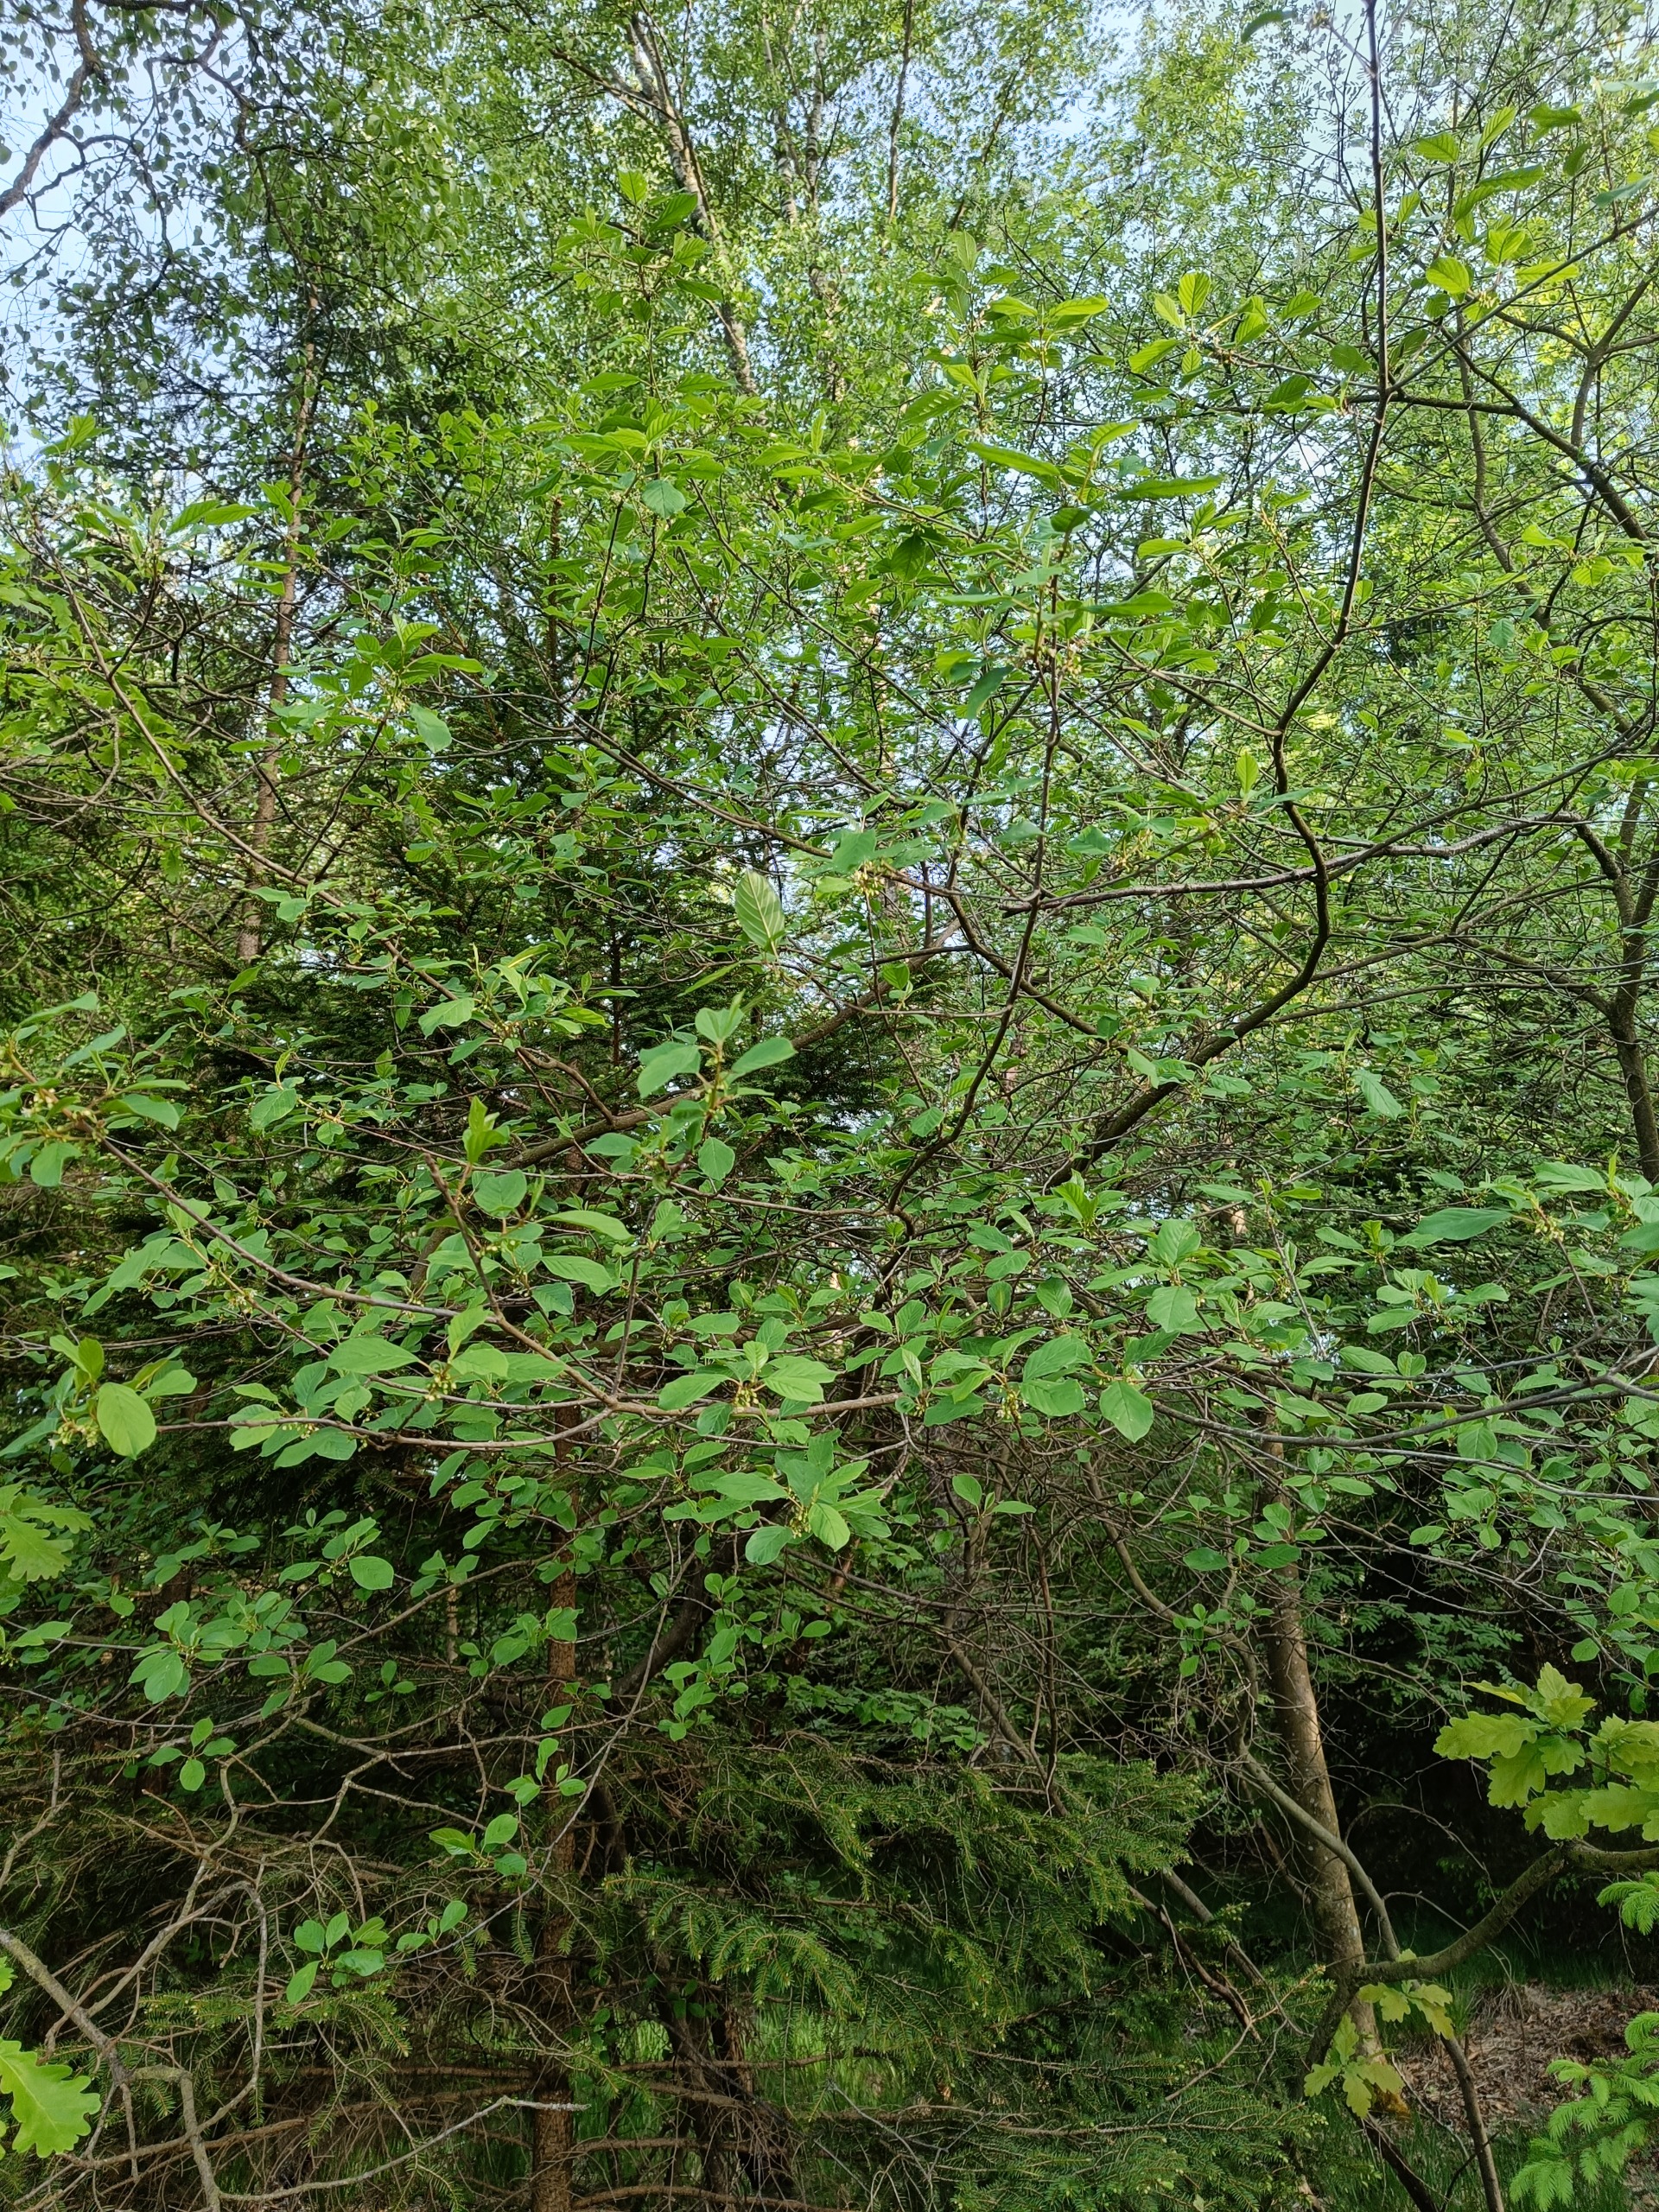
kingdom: Plantae
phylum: Tracheophyta
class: Magnoliopsida
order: Rosales
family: Rhamnaceae
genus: Frangula
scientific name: Frangula alnus
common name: Tørst
